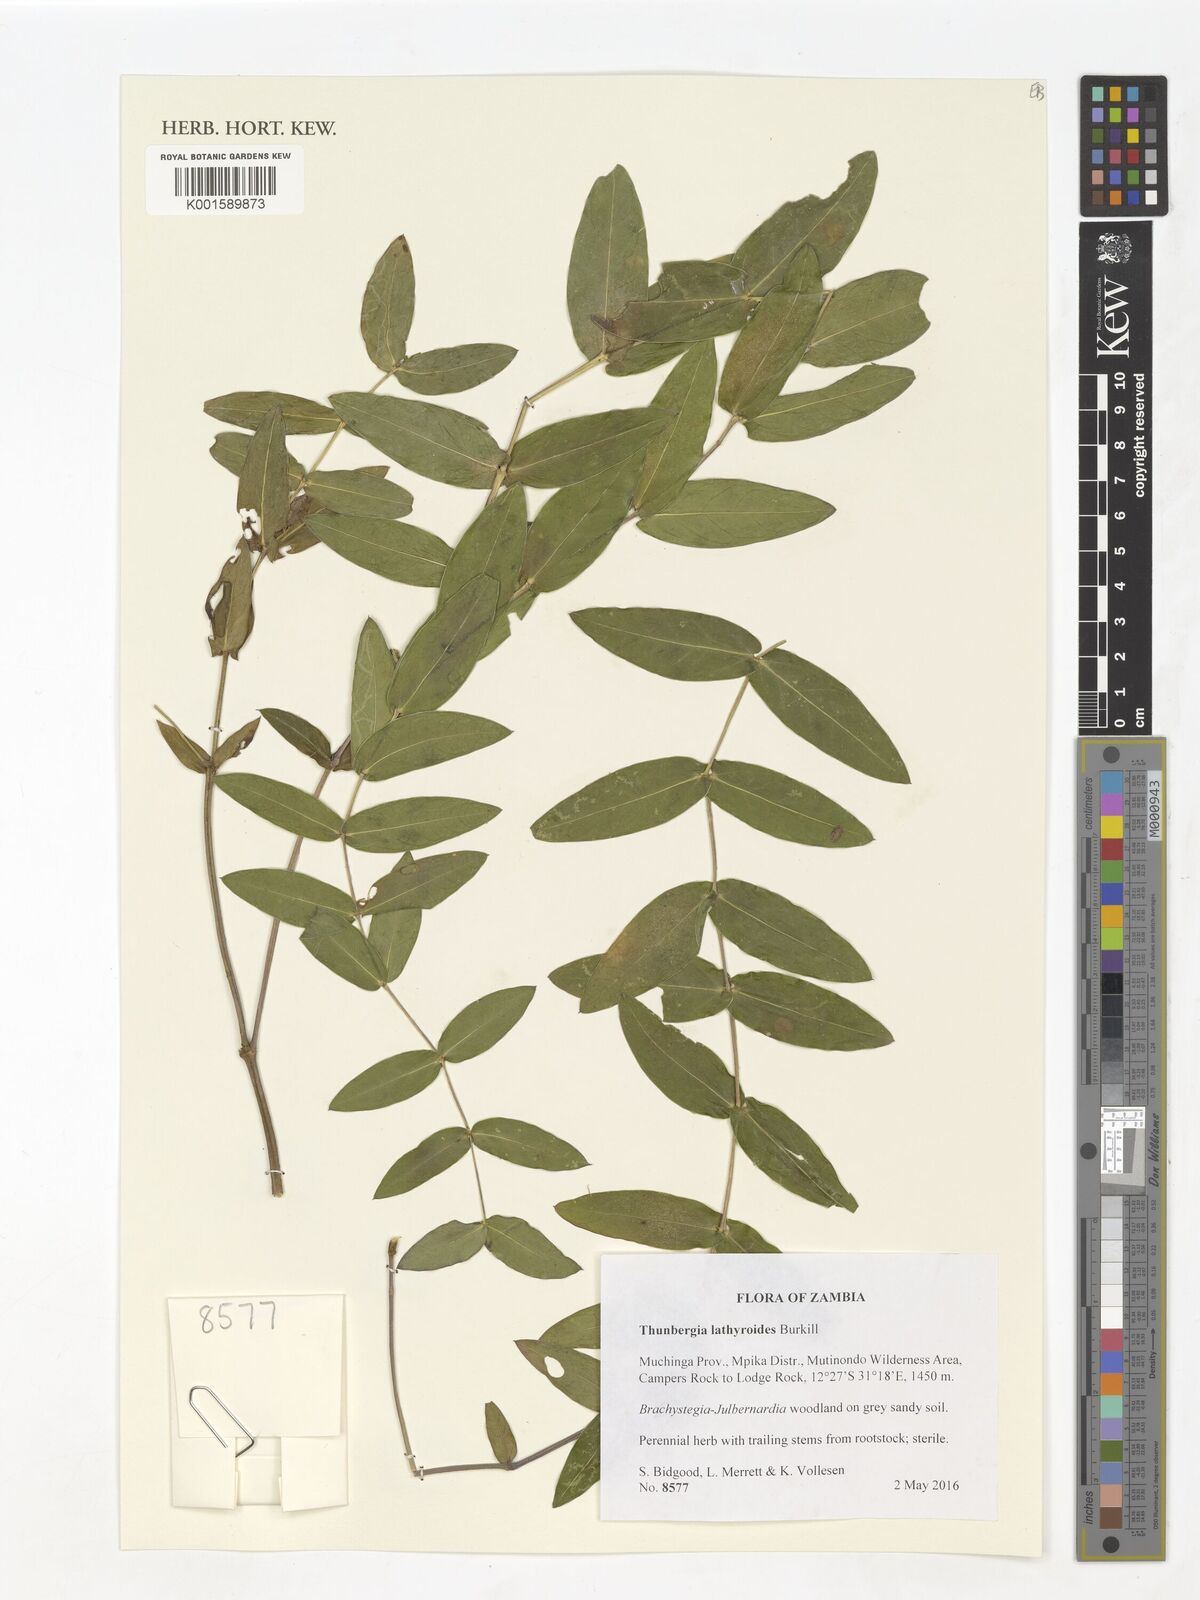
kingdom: Plantae
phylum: Tracheophyta
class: Magnoliopsida
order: Lamiales
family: Acanthaceae
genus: Thunbergia
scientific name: Thunbergia lathyroides
